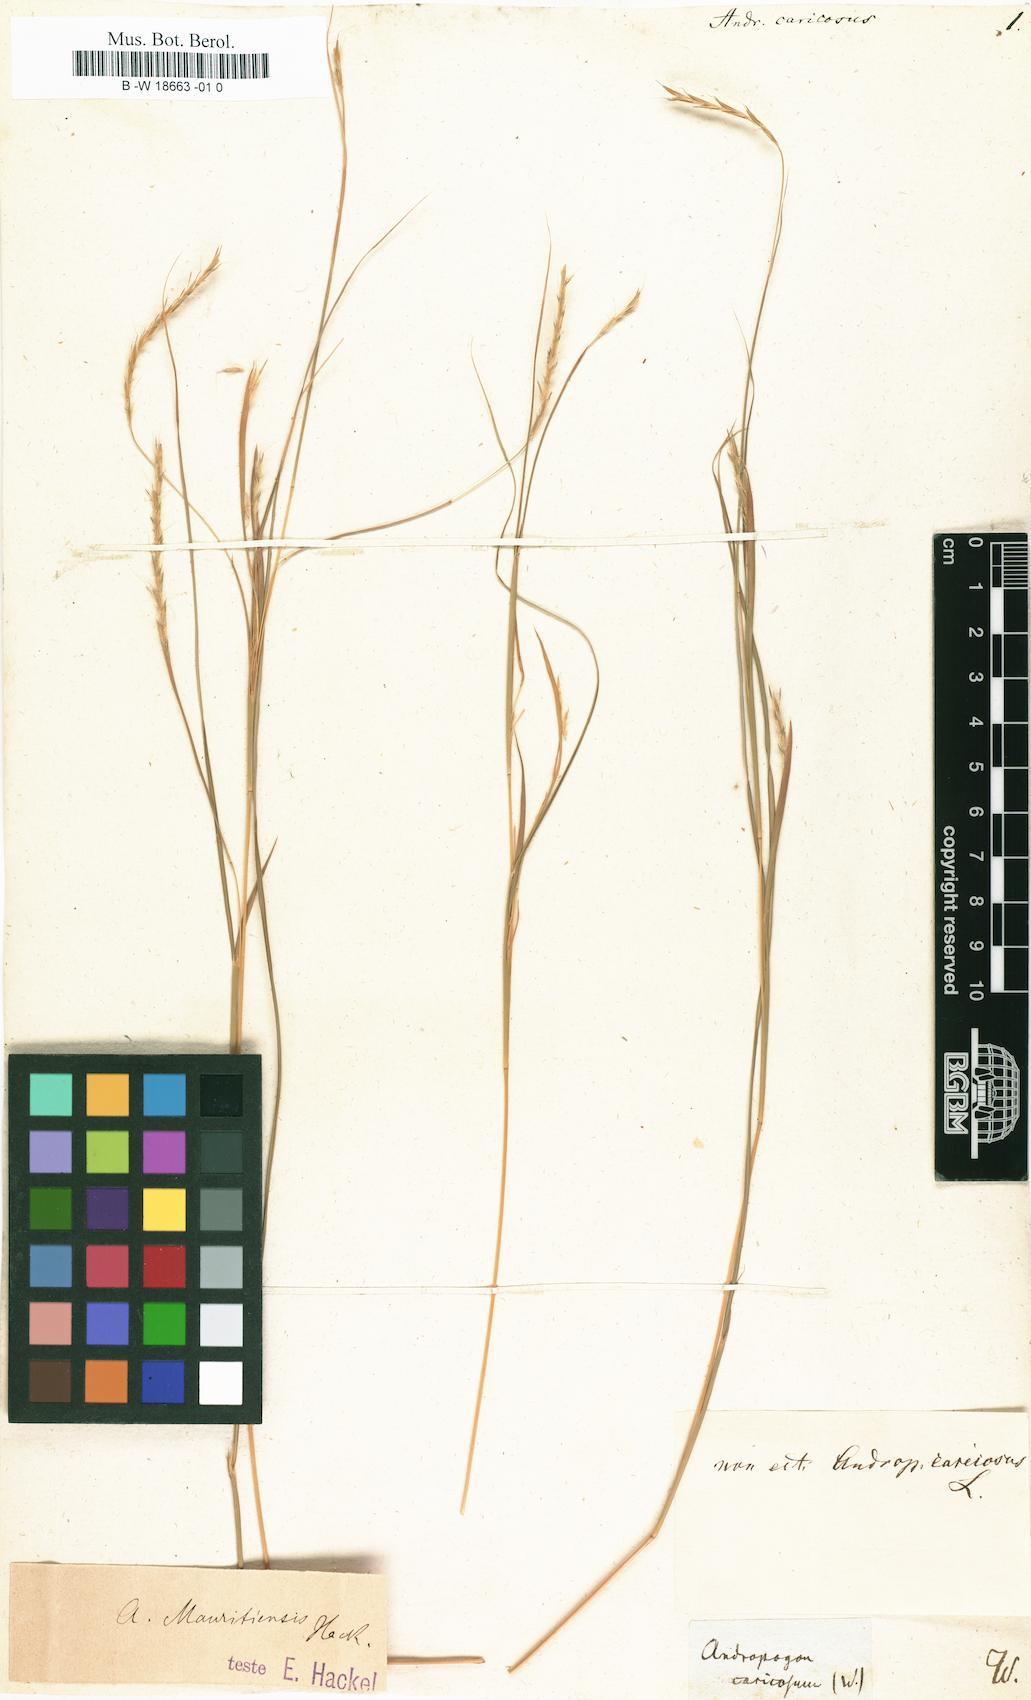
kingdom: Plantae
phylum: Tracheophyta
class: Liliopsida
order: Poales
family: Poaceae
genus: Dichanthium
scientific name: Dichanthium caricosum
